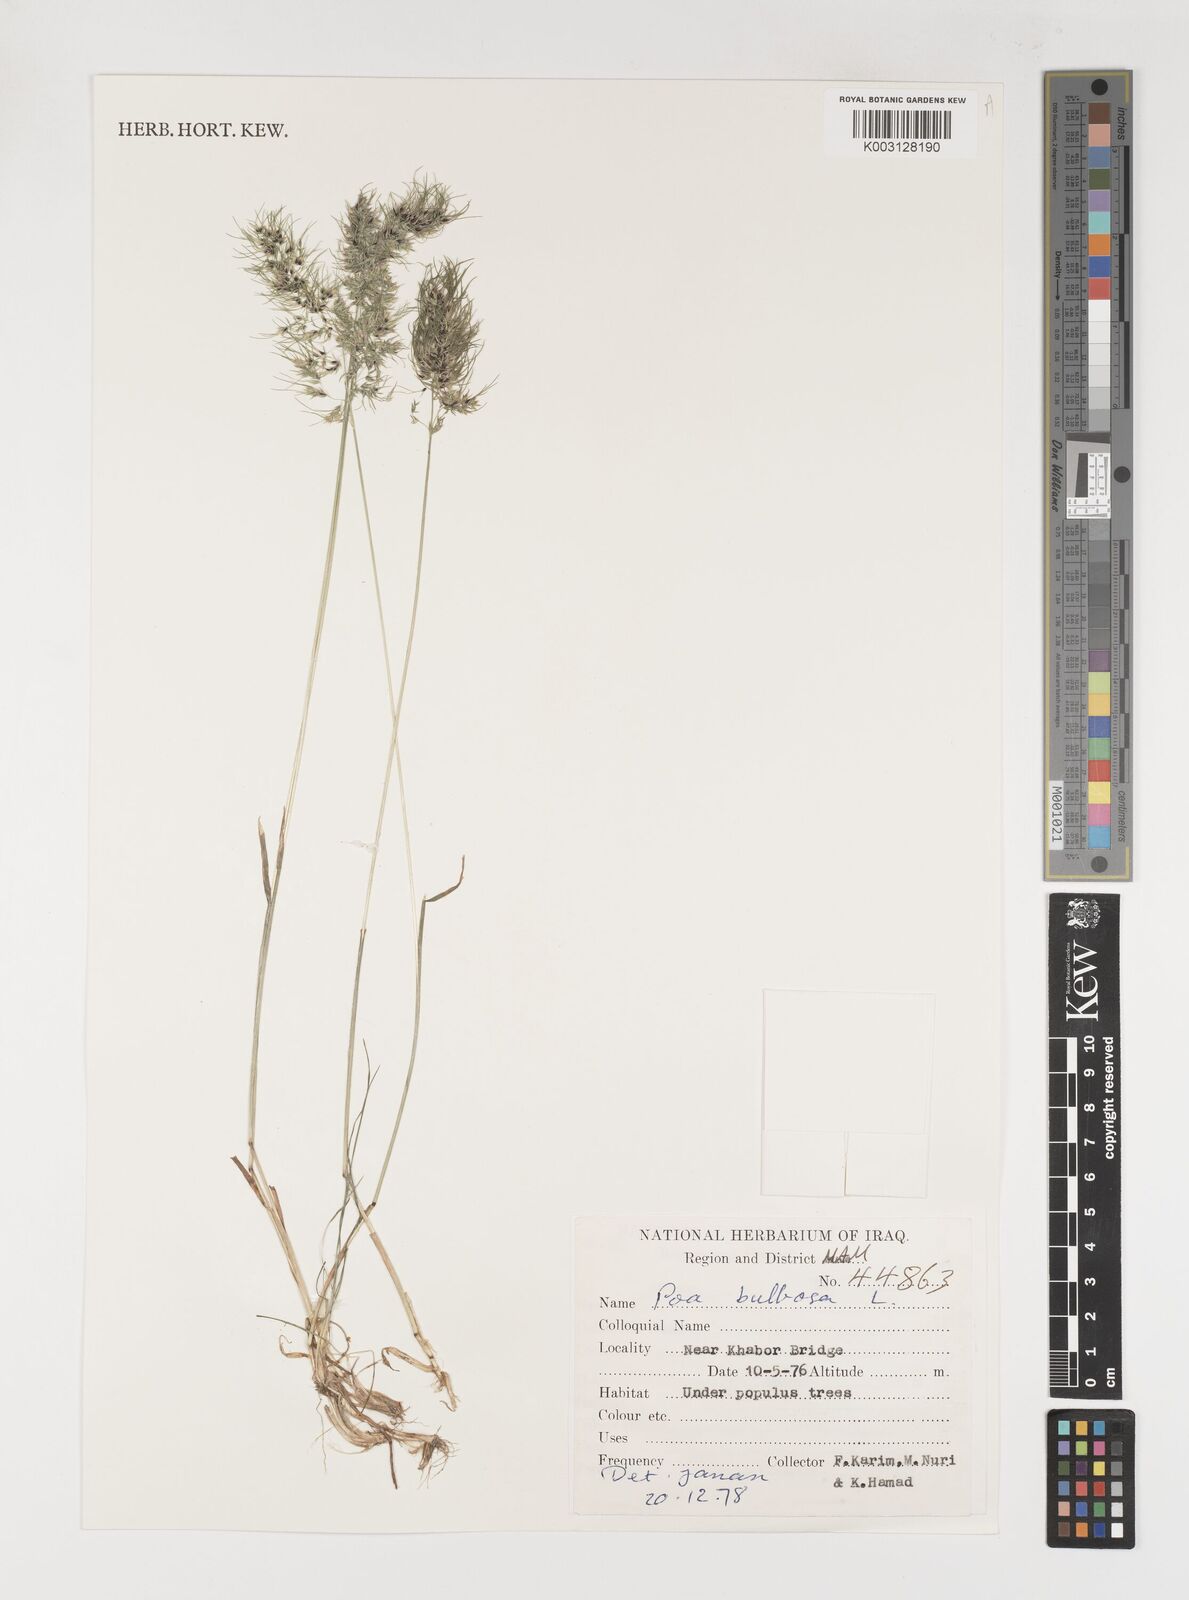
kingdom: Plantae
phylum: Tracheophyta
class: Liliopsida
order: Poales
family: Poaceae
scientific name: Poaceae
